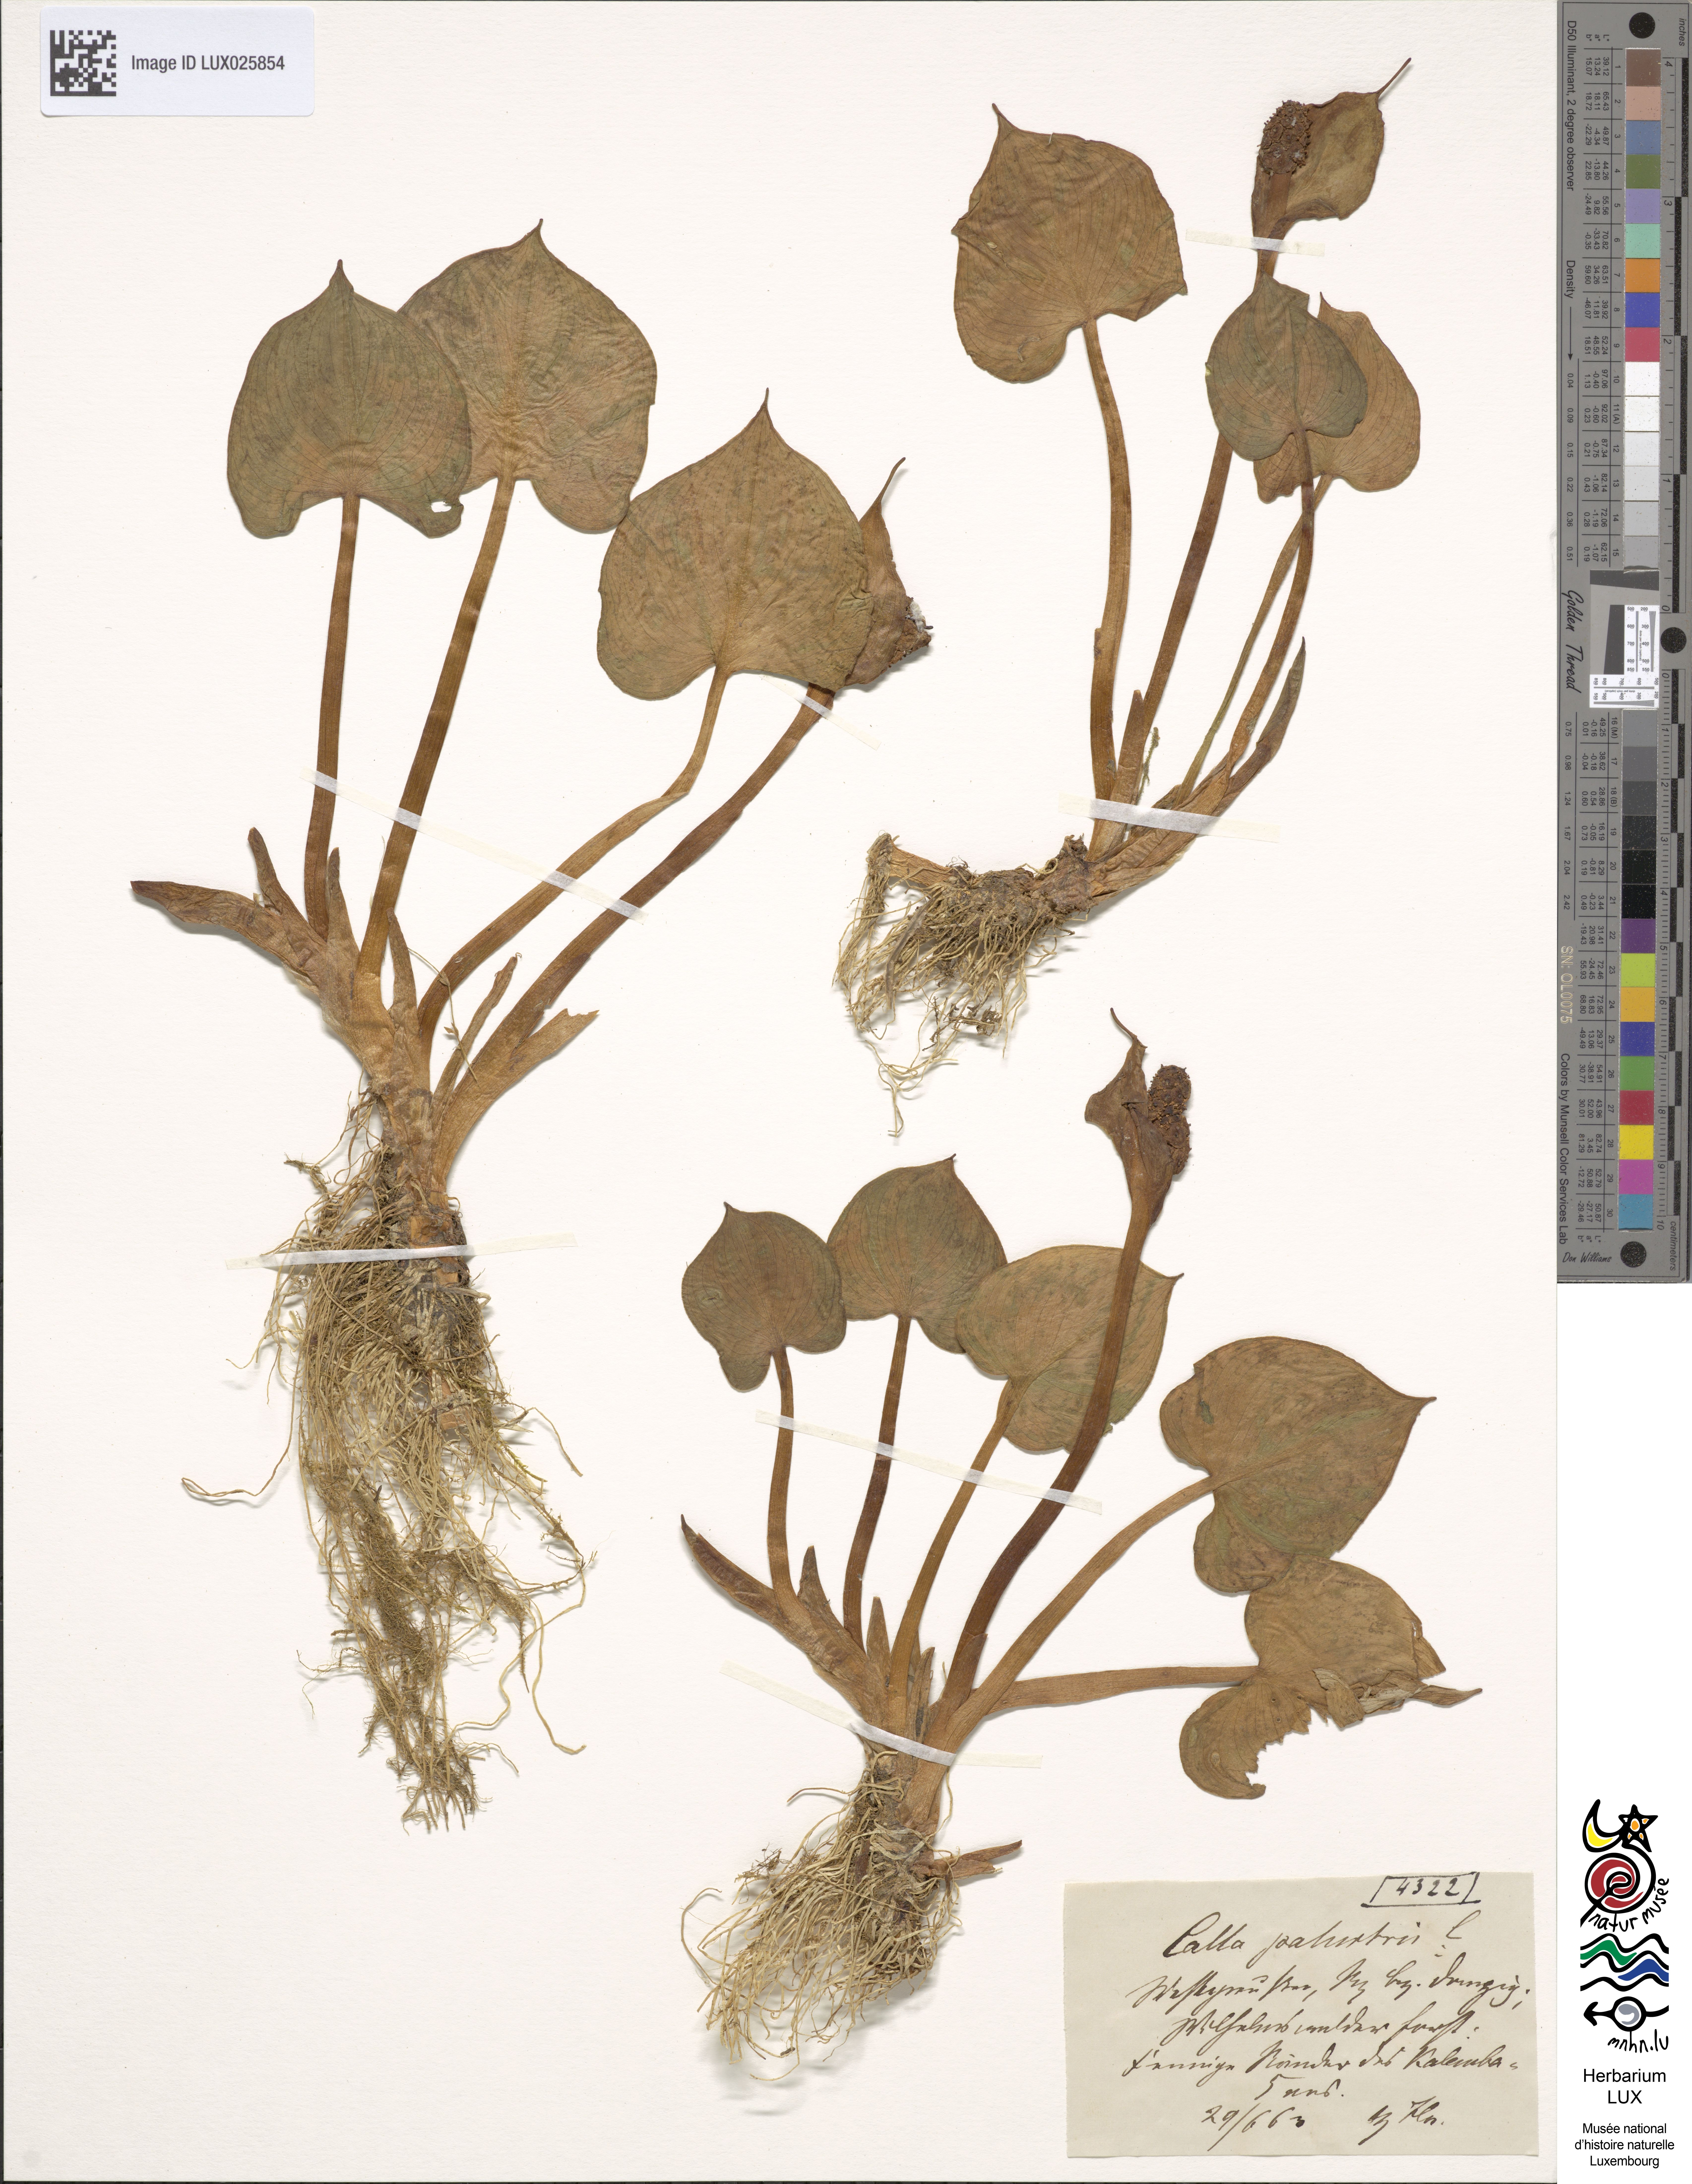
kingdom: Plantae
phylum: Tracheophyta
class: Liliopsida
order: Alismatales
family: Araceae
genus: Calla
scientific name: Calla palustris
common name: Bog arum
